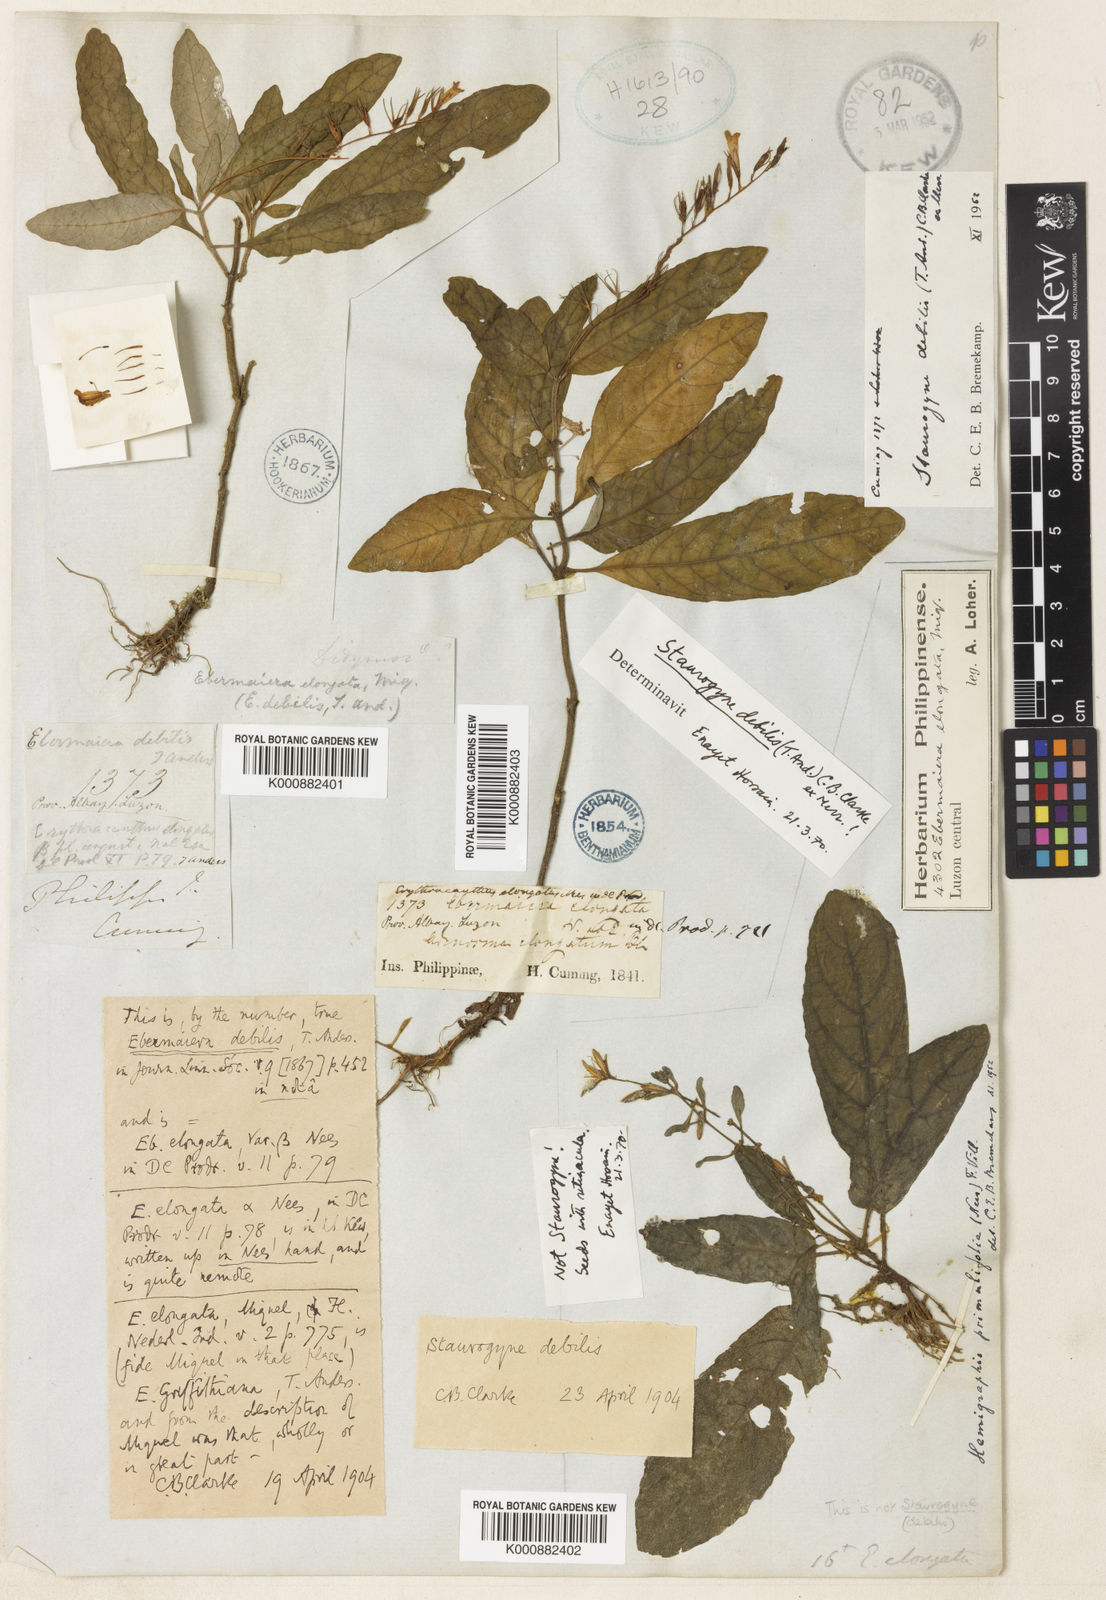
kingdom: Plantae
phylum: Tracheophyta
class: Magnoliopsida
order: Lamiales
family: Acanthaceae
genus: Staurogyne
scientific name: Staurogyne
